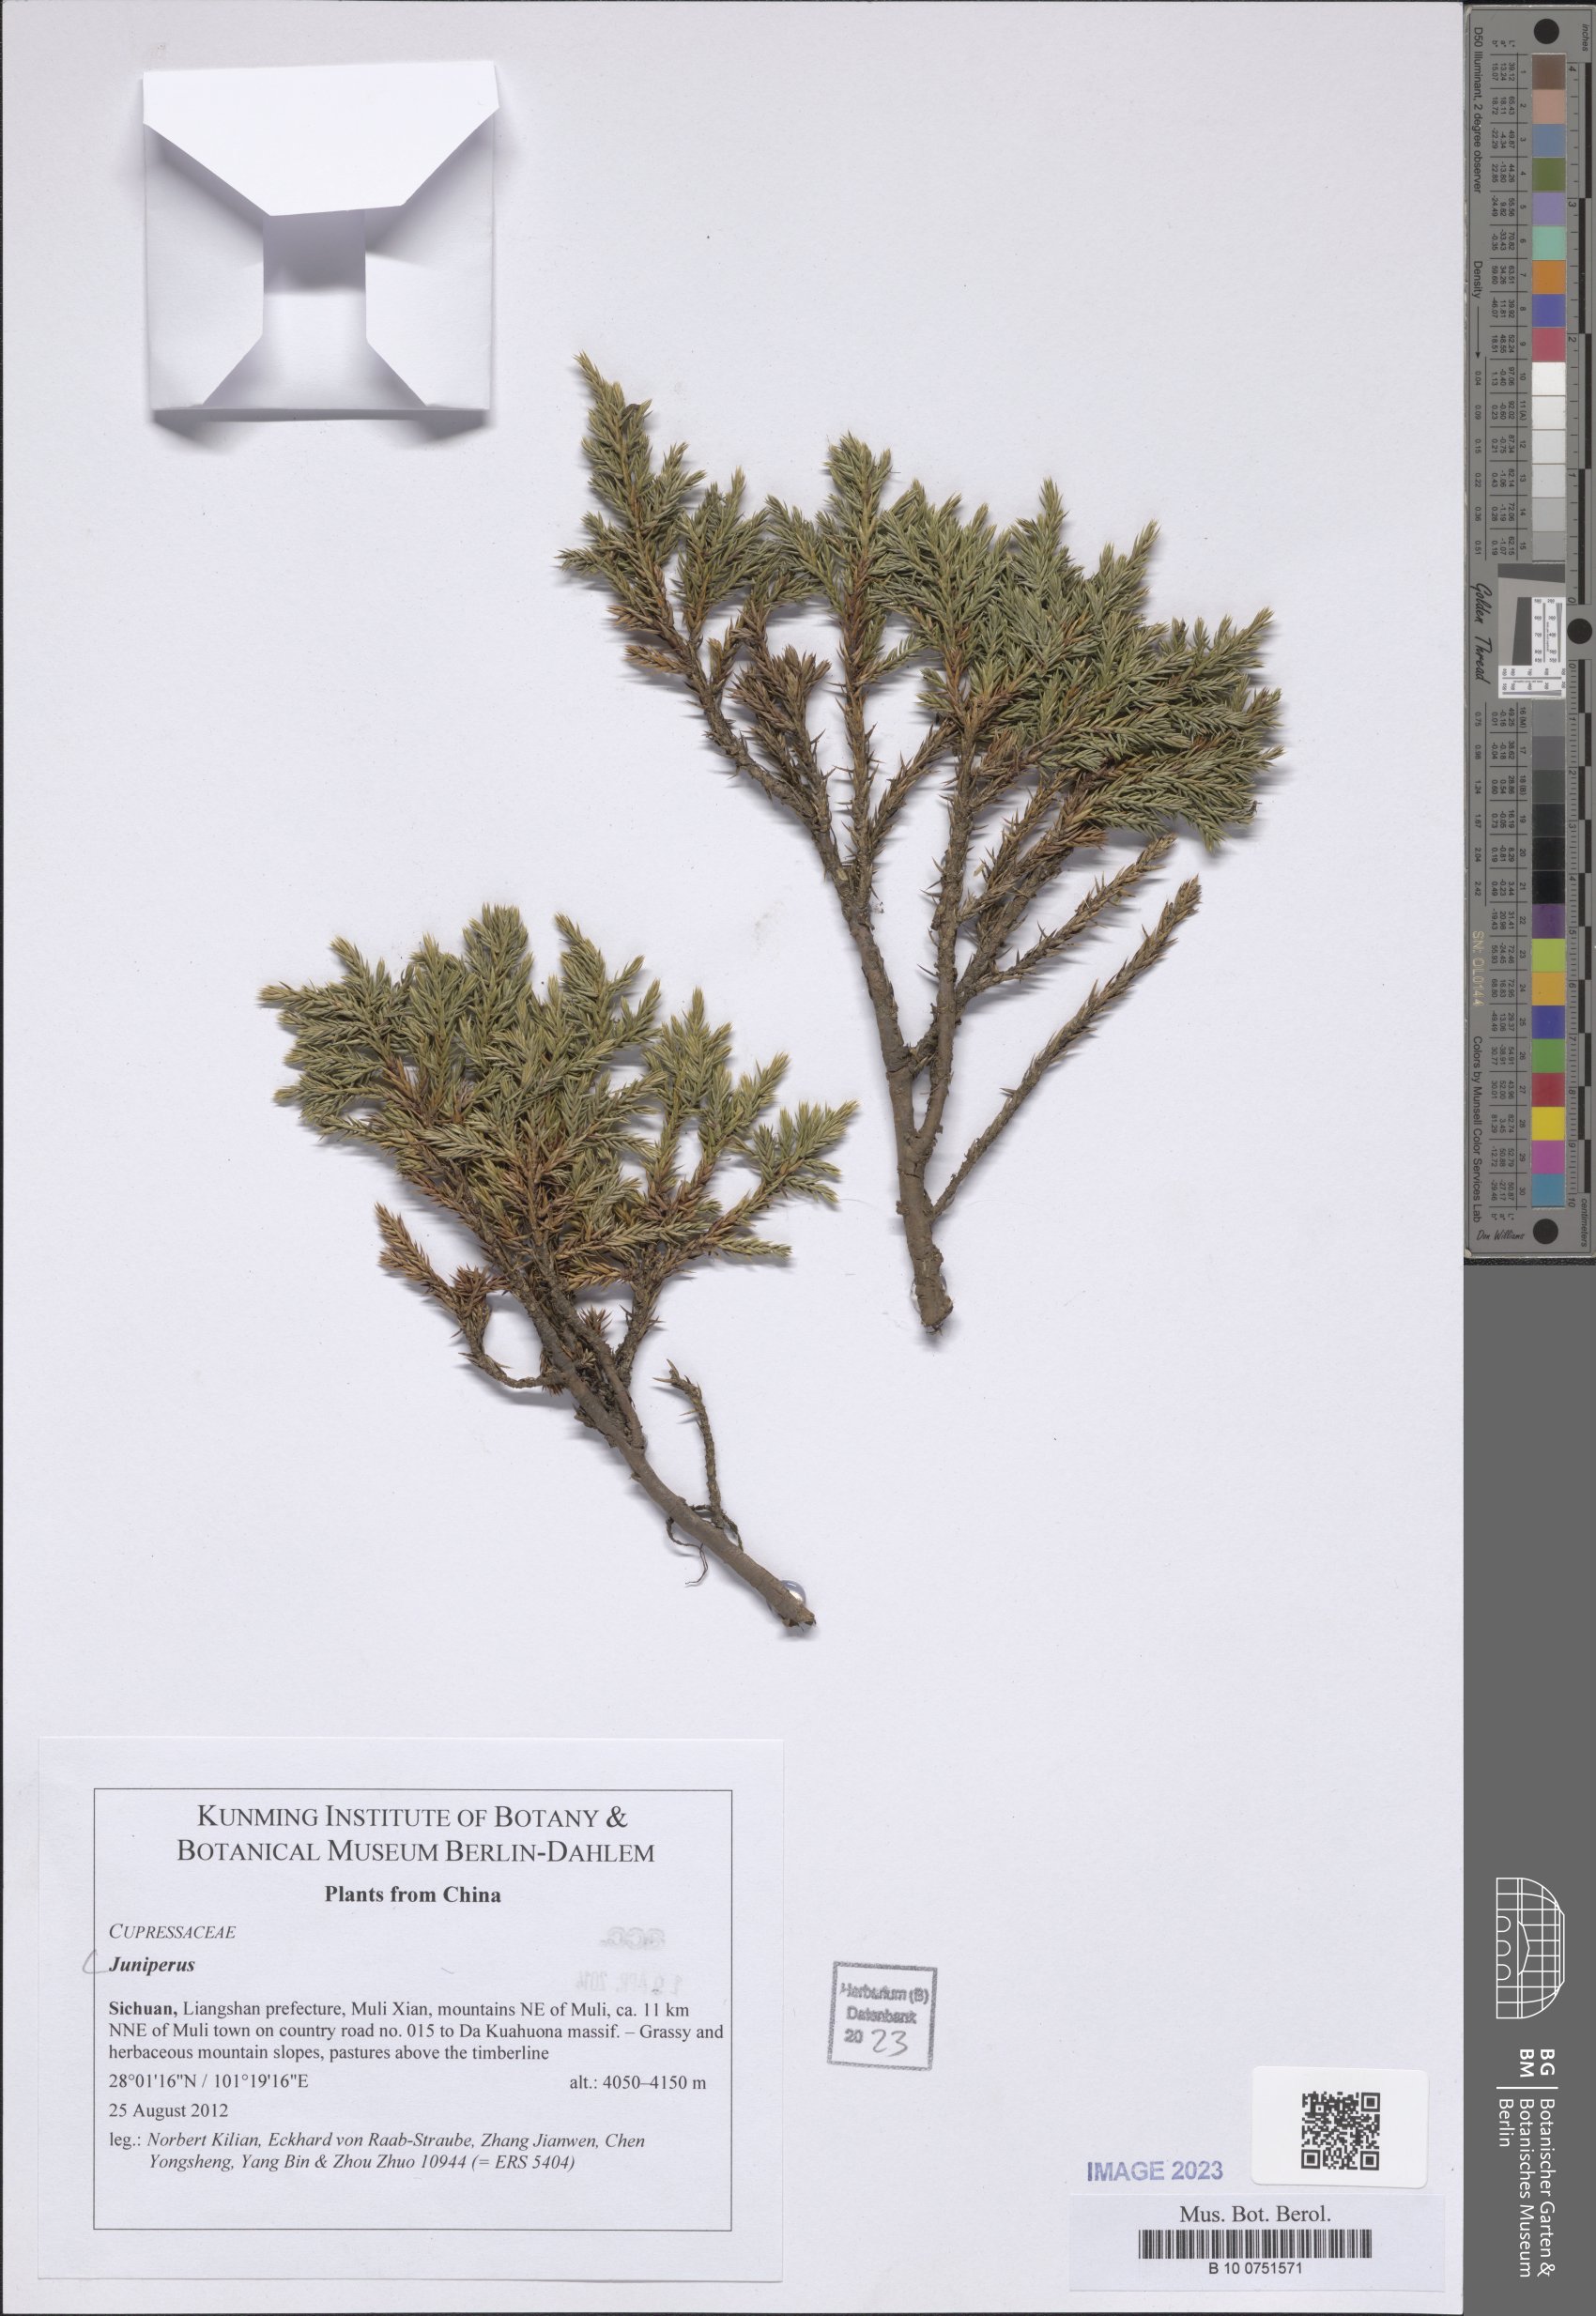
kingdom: Plantae
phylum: Tracheophyta
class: Pinopsida
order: Pinales
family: Cupressaceae
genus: Juniperus
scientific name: Juniperus
